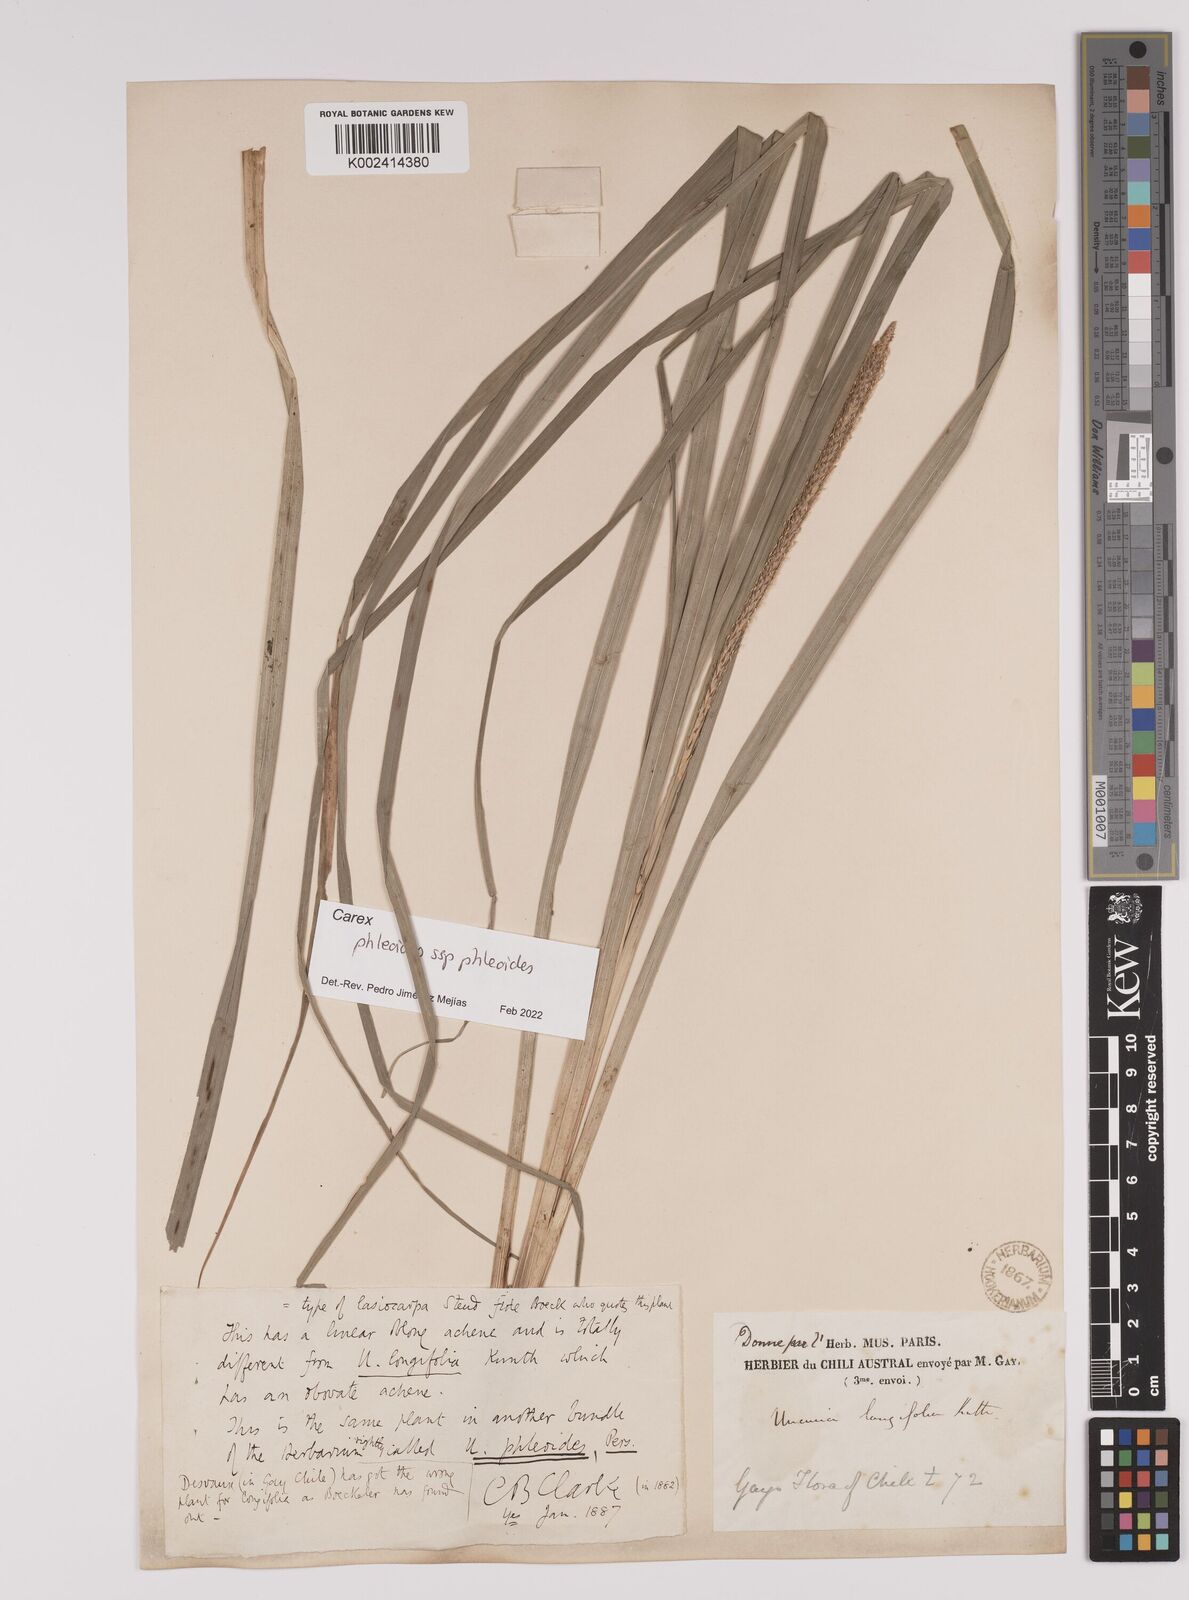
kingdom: Plantae
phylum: Tracheophyta
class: Liliopsida
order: Poales
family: Cyperaceae
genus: Carex
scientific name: Carex phleoides
